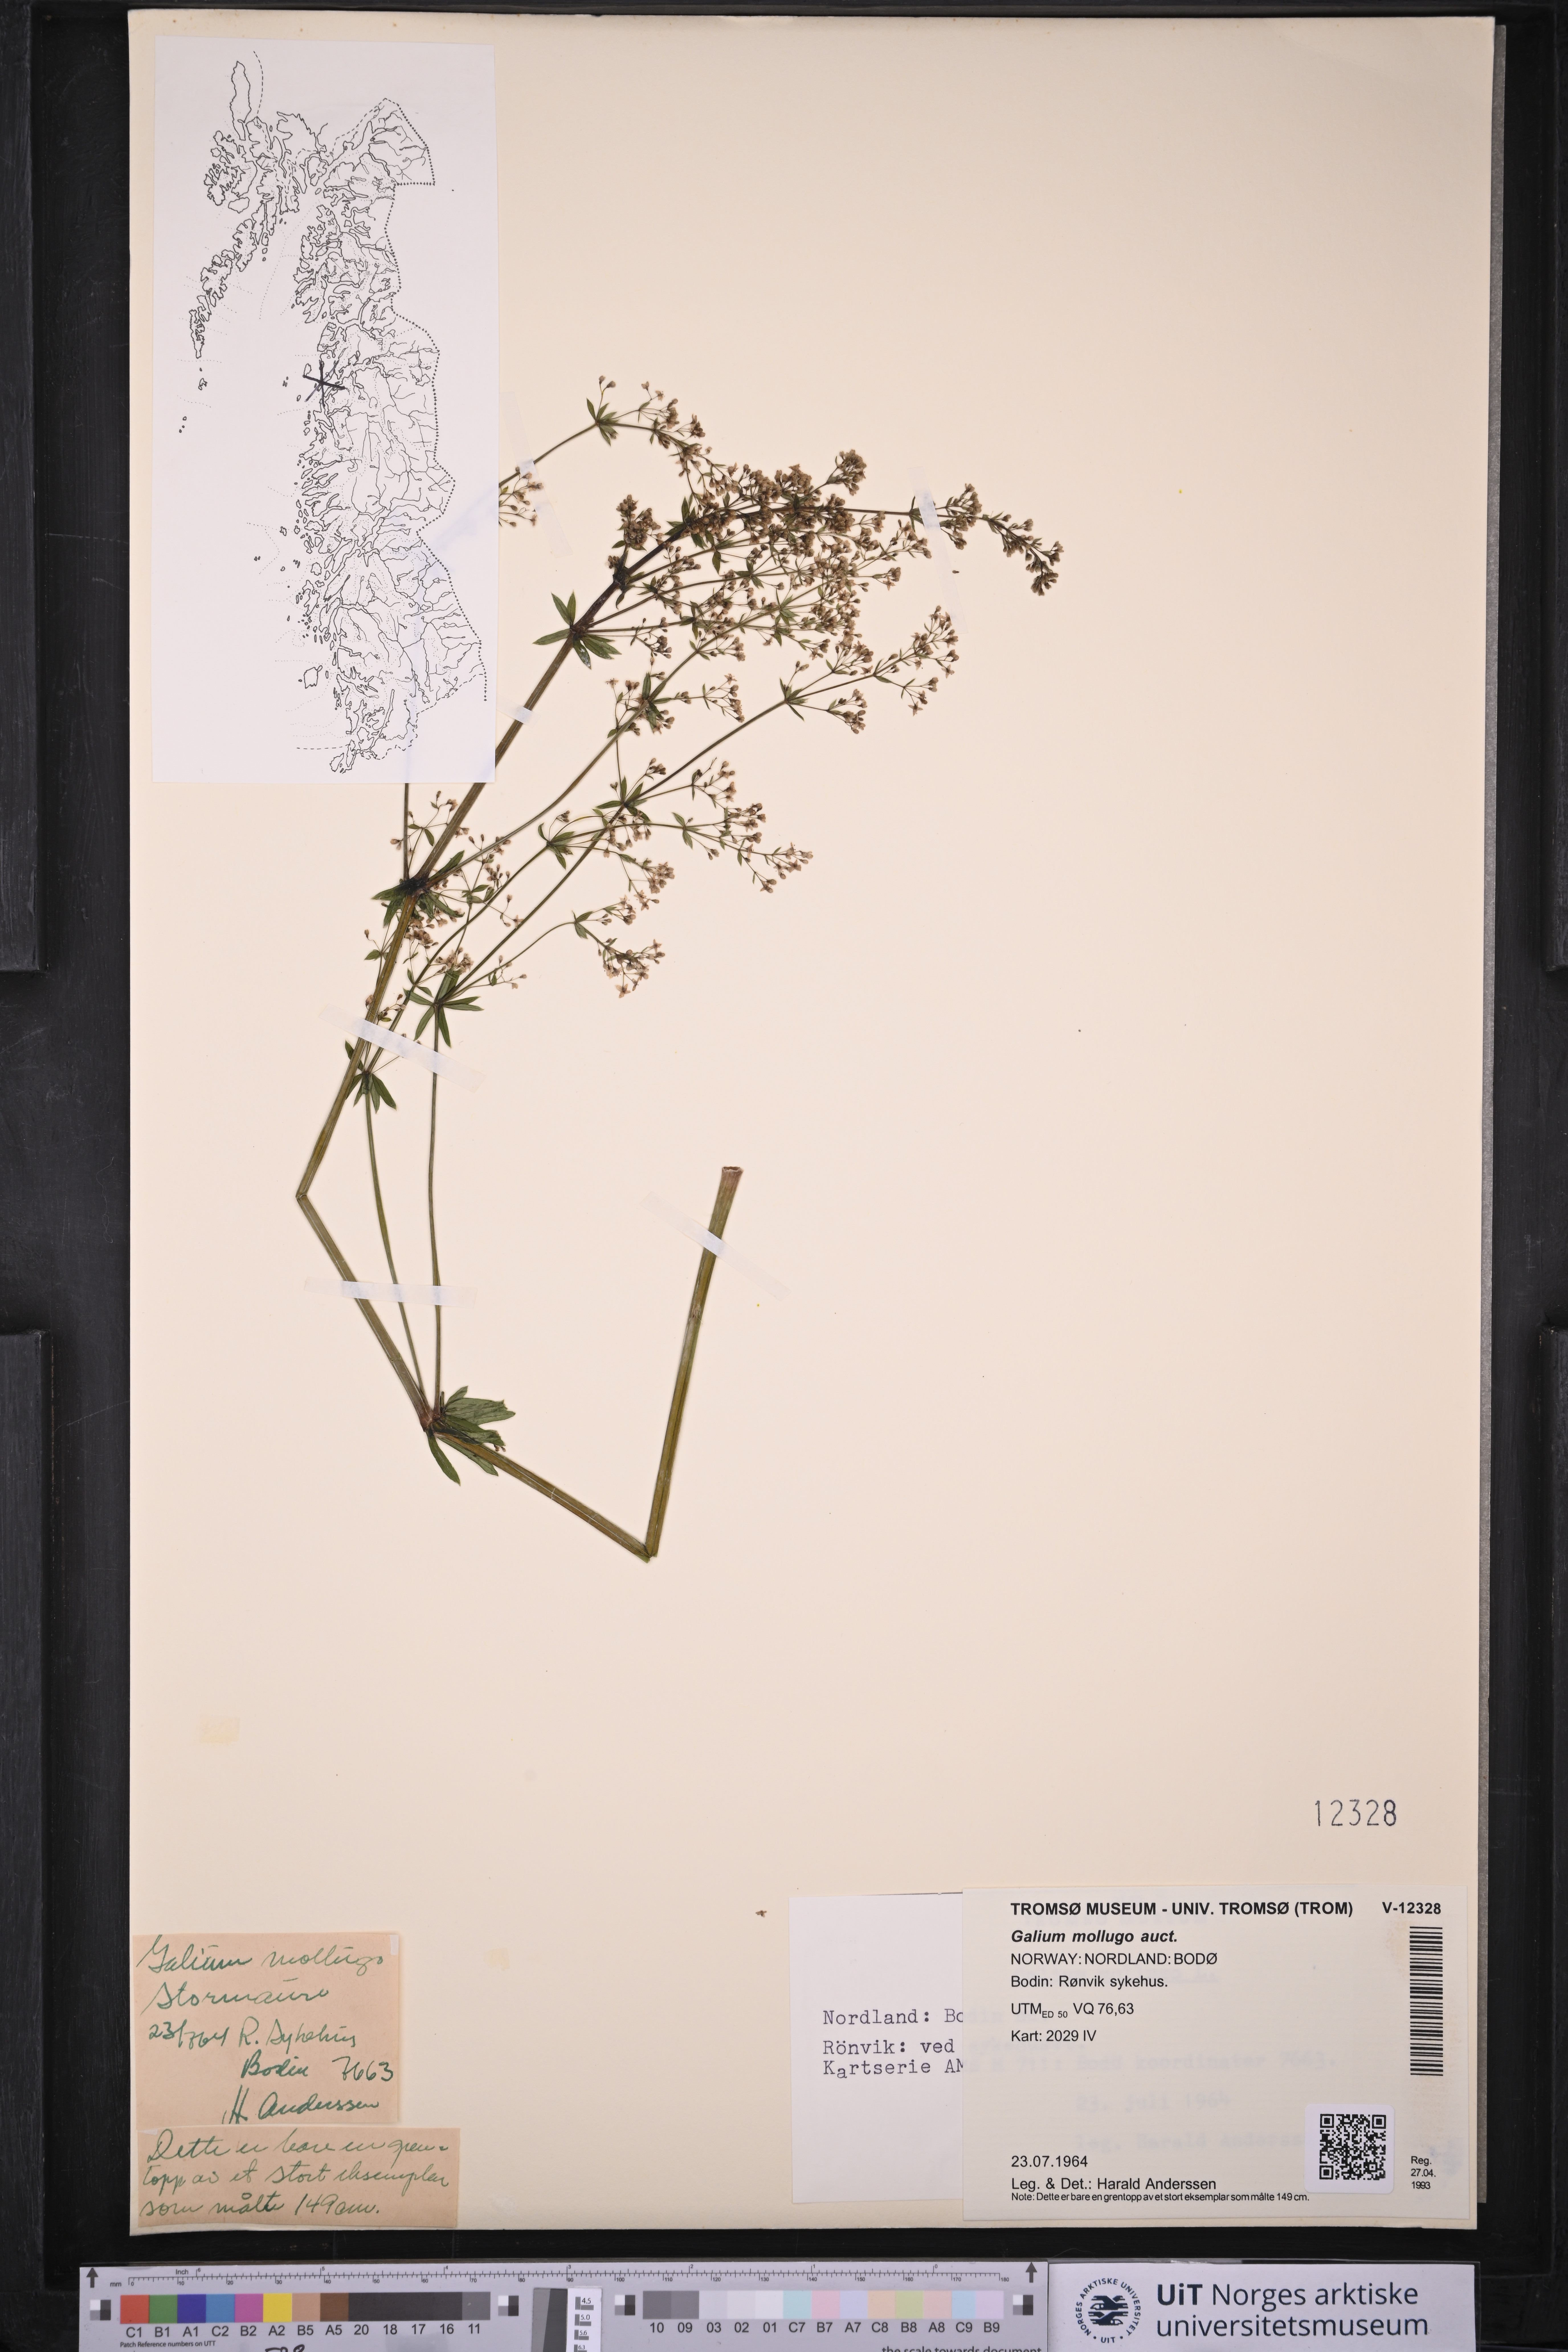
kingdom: Plantae
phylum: Tracheophyta
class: Magnoliopsida
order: Gentianales
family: Rubiaceae
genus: Galium
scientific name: Galium
